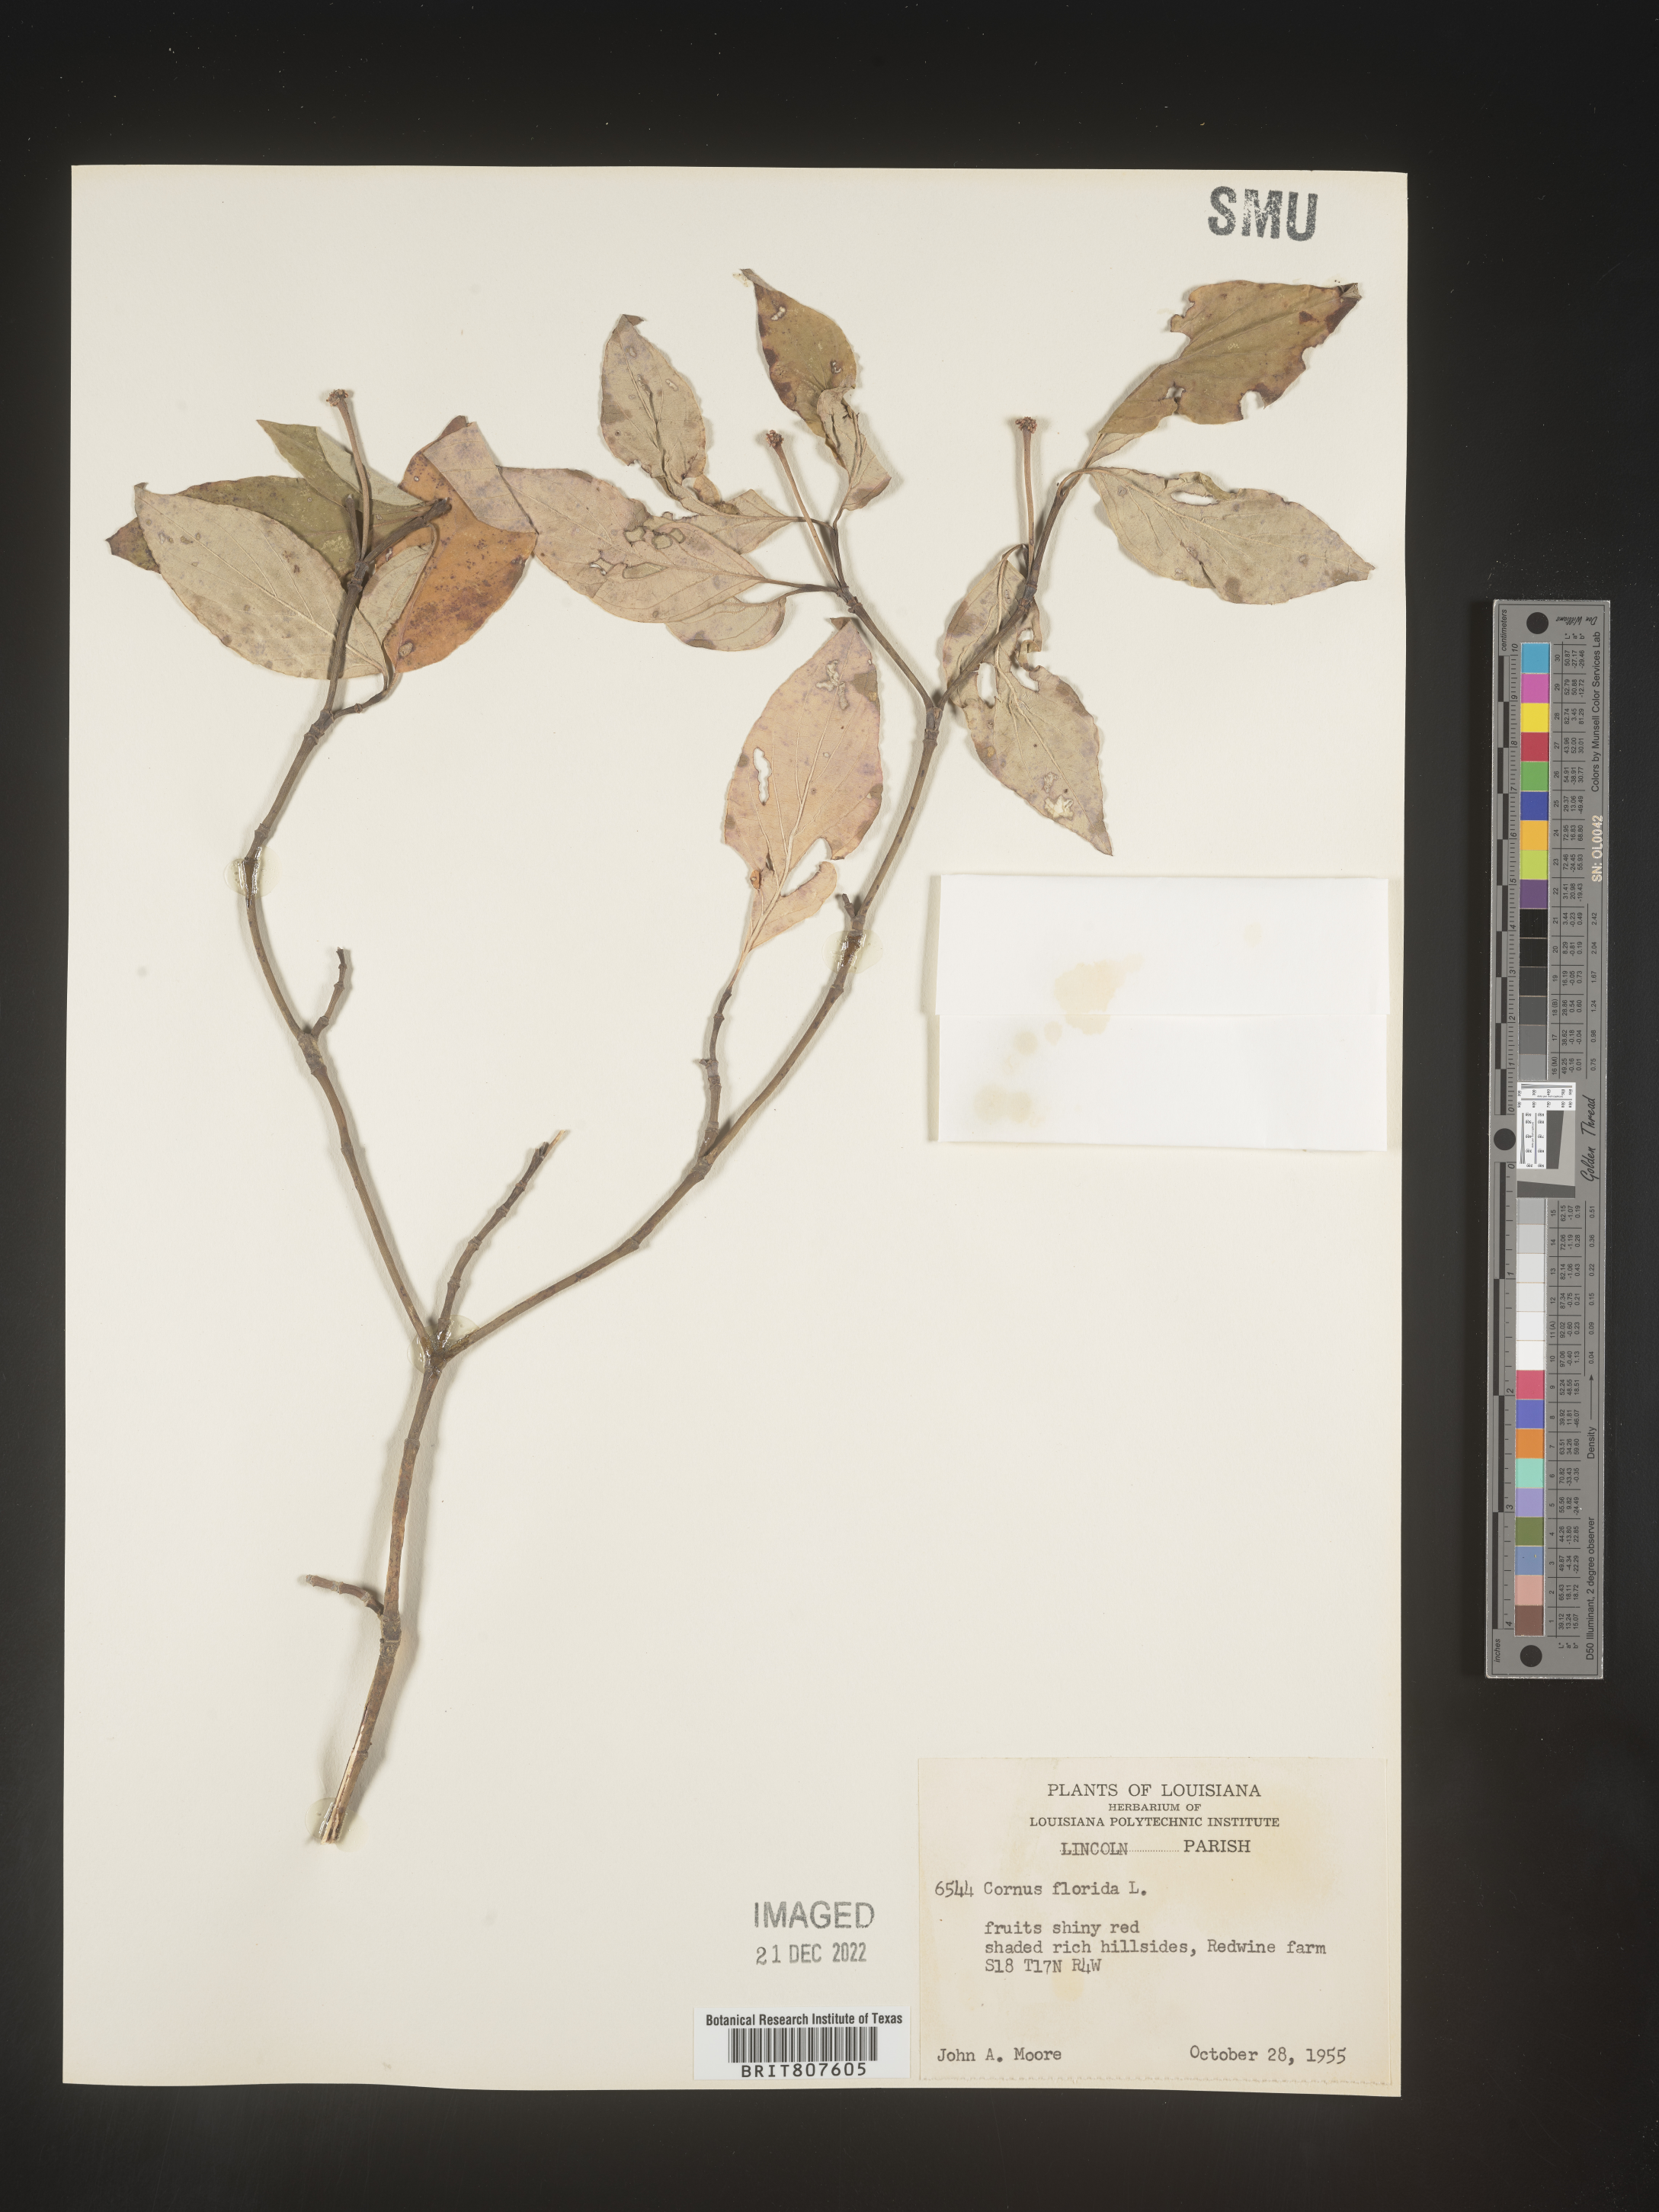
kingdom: Plantae
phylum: Tracheophyta
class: Magnoliopsida
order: Cornales
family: Cornaceae
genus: Cornus
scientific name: Cornus florida
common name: Flowering dogwood
